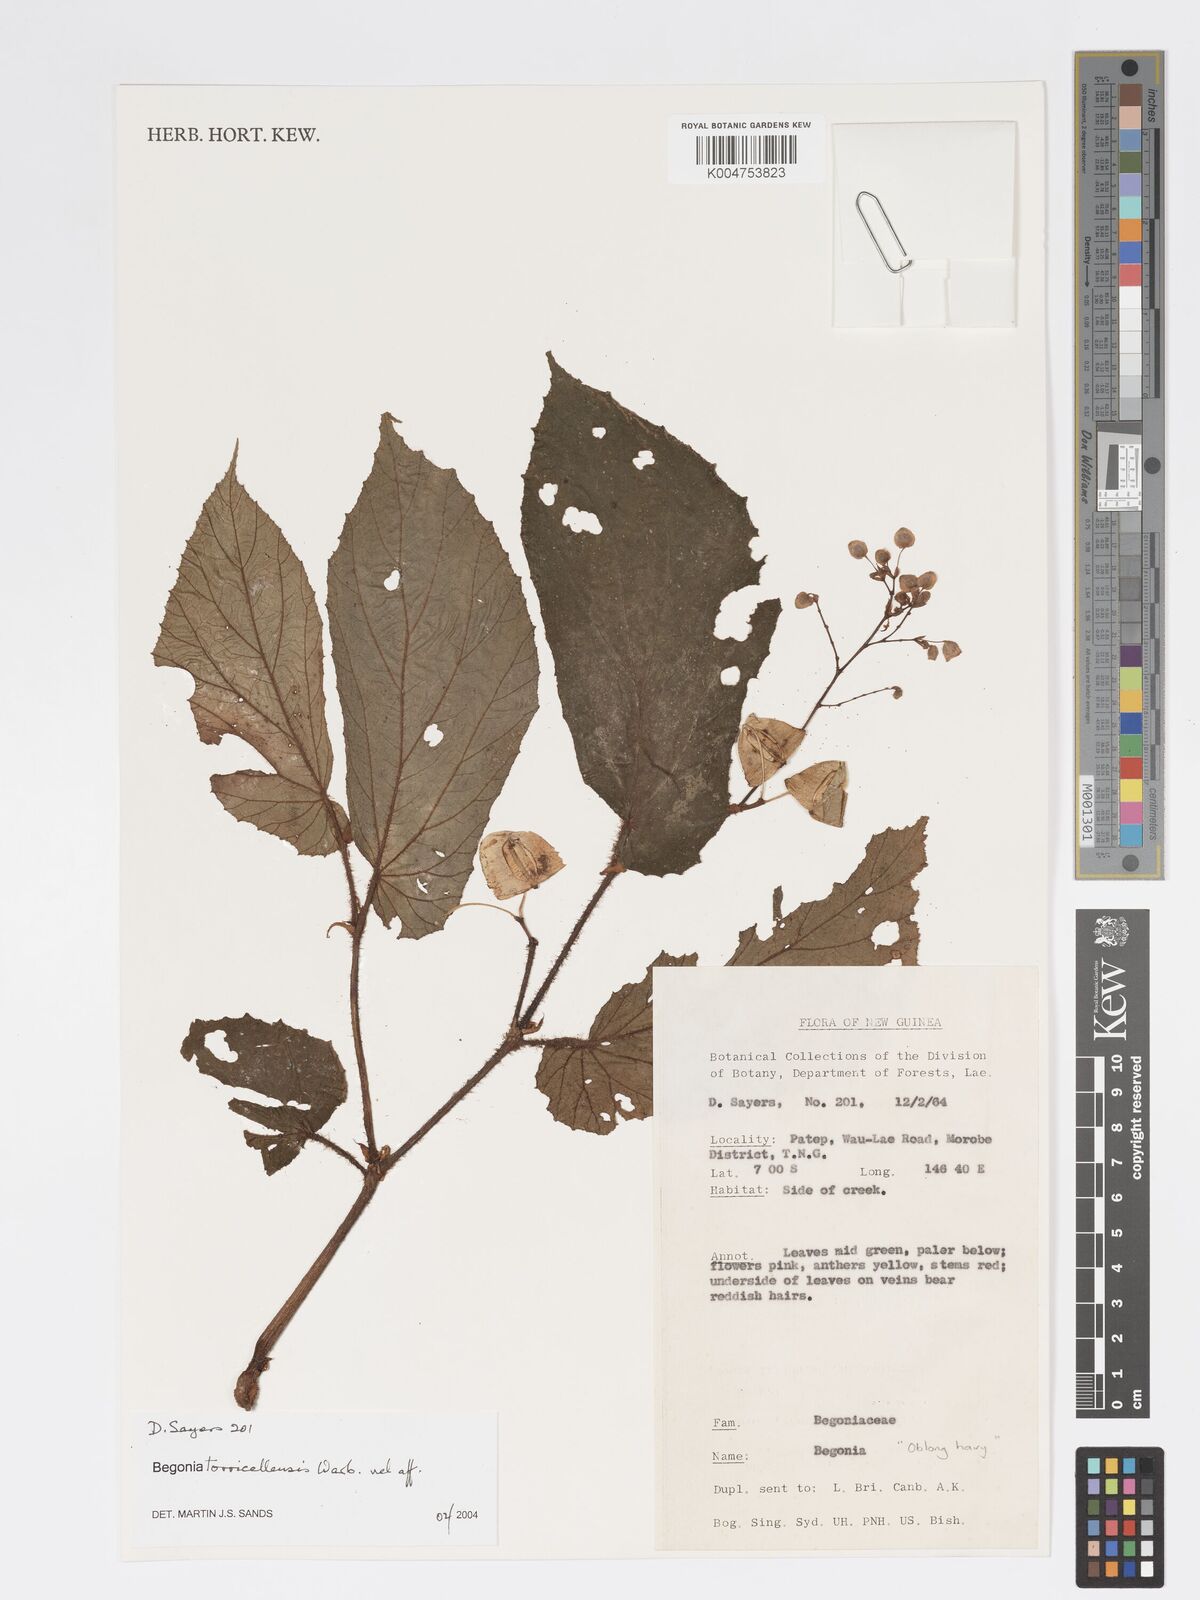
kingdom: Plantae
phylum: Tracheophyta
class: Magnoliopsida
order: Cucurbitales
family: Begoniaceae
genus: Begonia
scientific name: Begonia torricellensis
